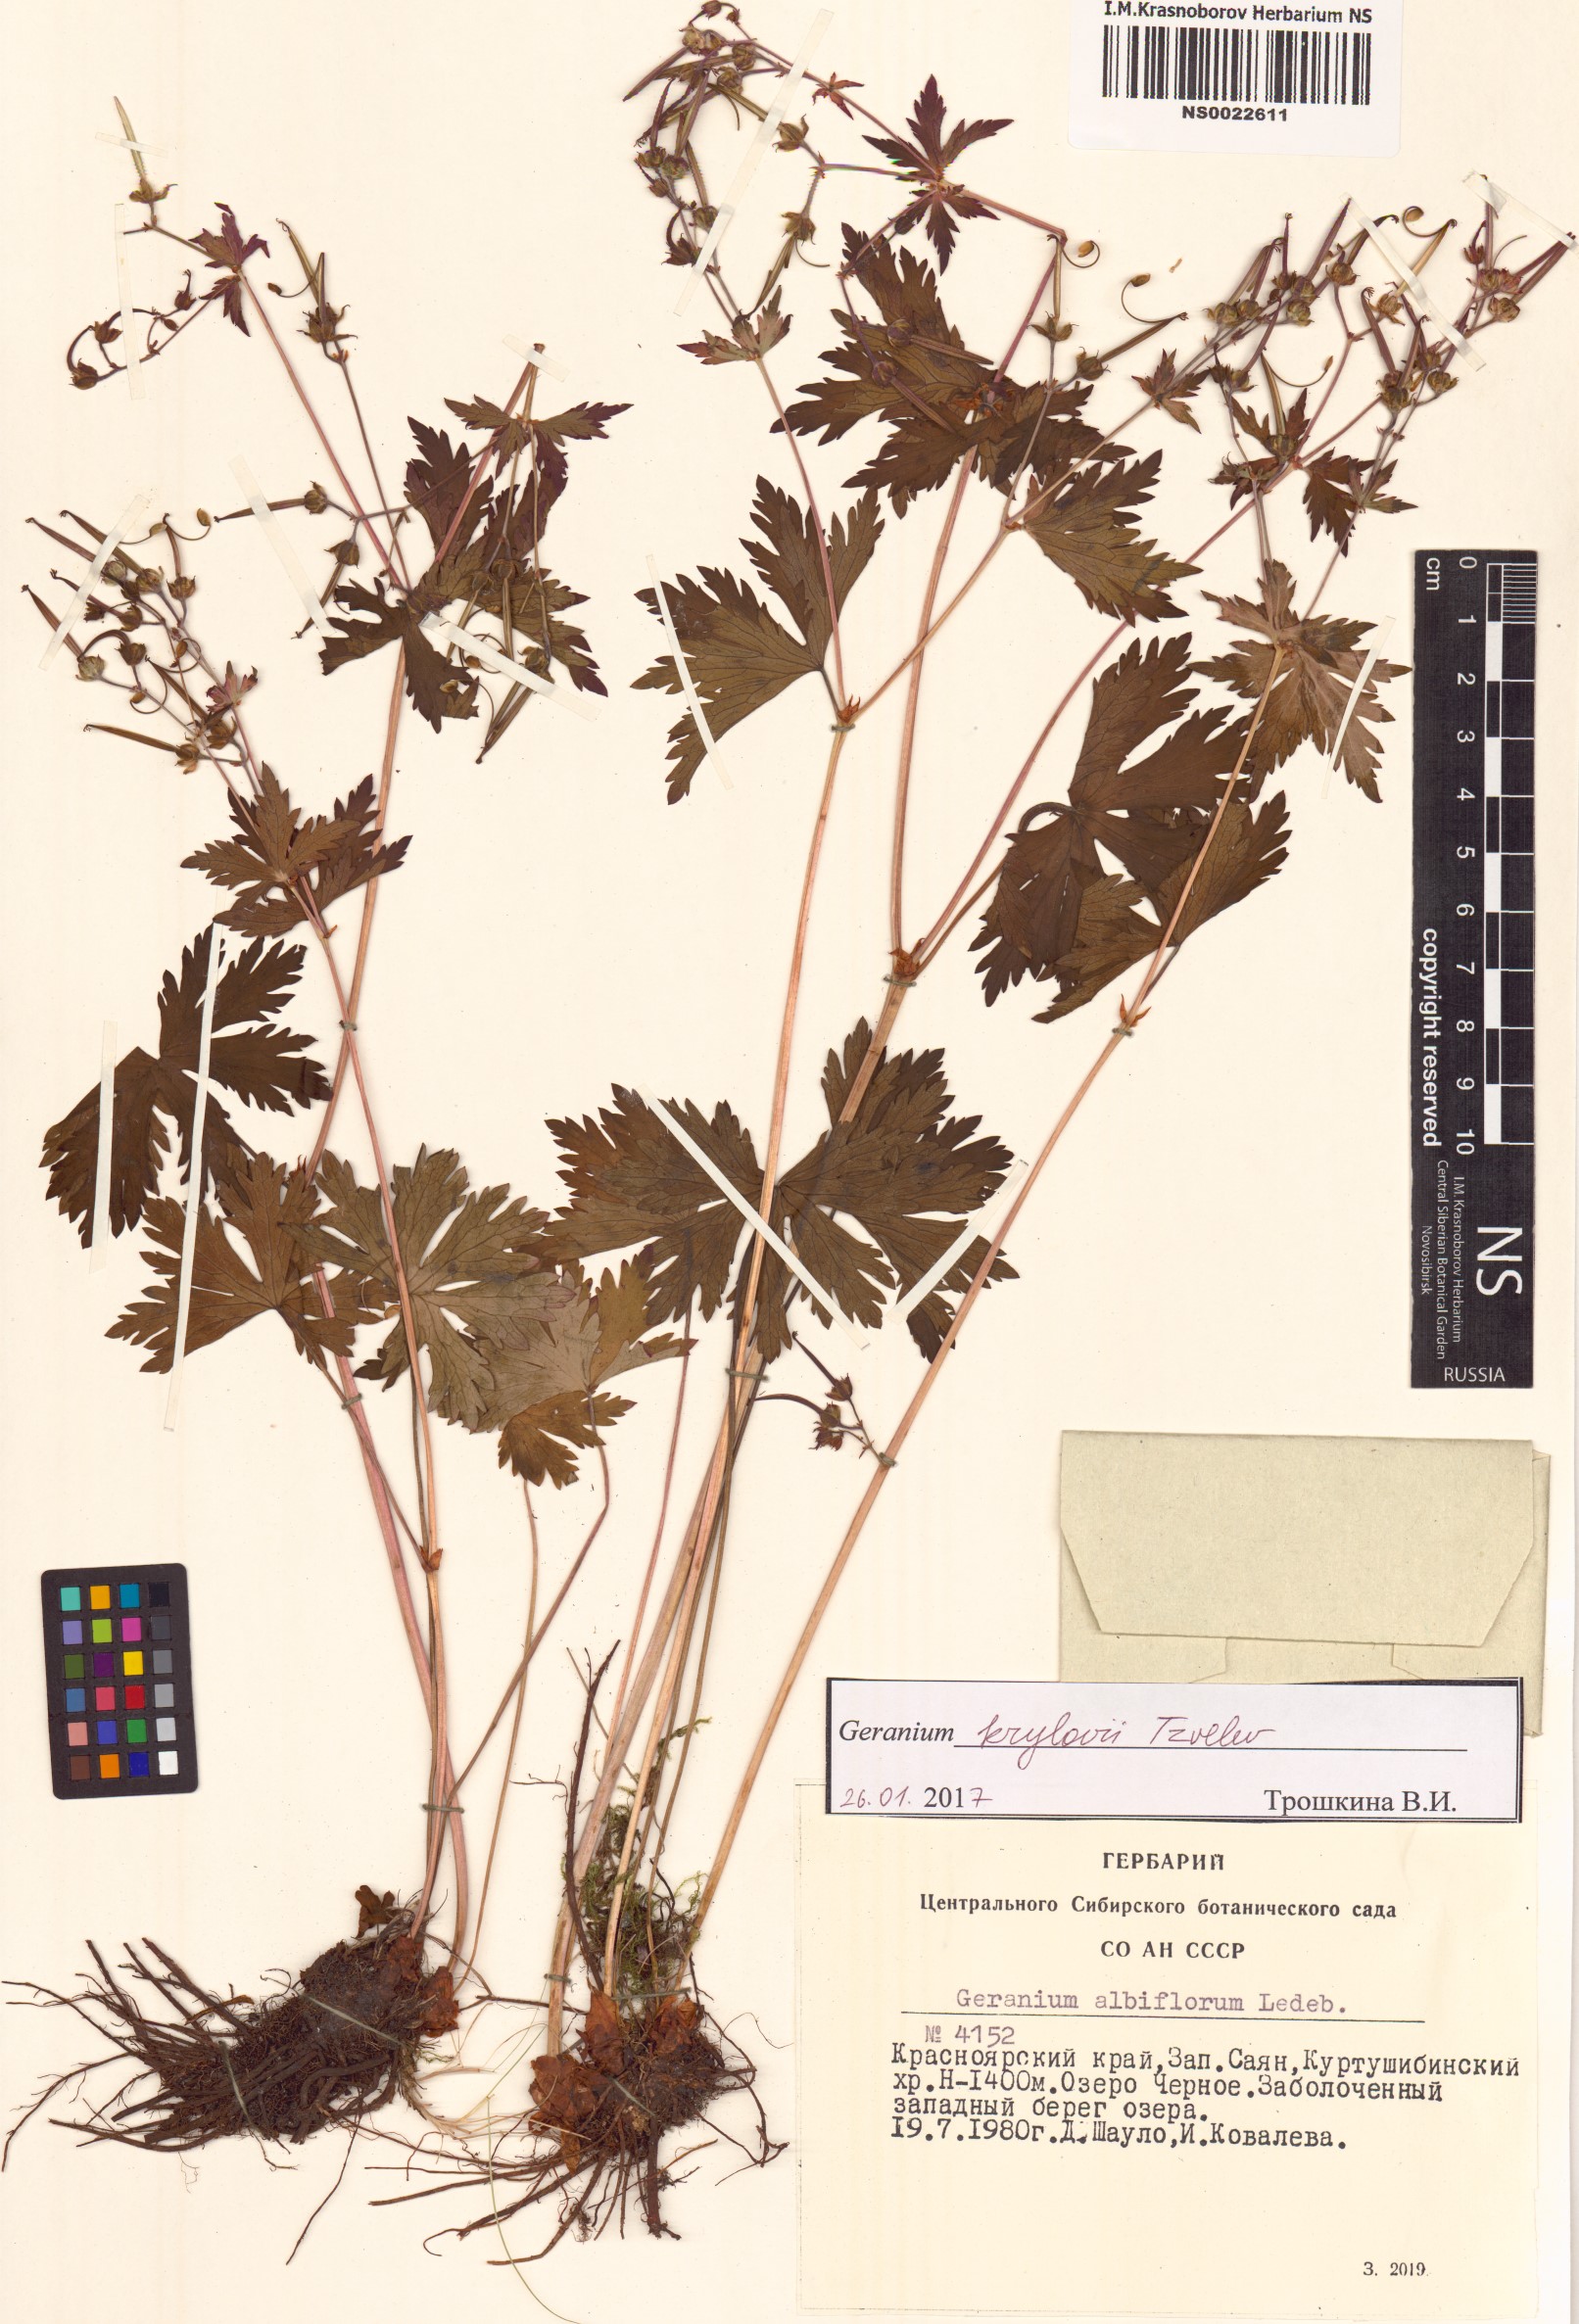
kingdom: Plantae
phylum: Tracheophyta
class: Magnoliopsida
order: Geraniales
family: Geraniaceae
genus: Geranium
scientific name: Geranium sylvaticum
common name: Wood crane's-bill
